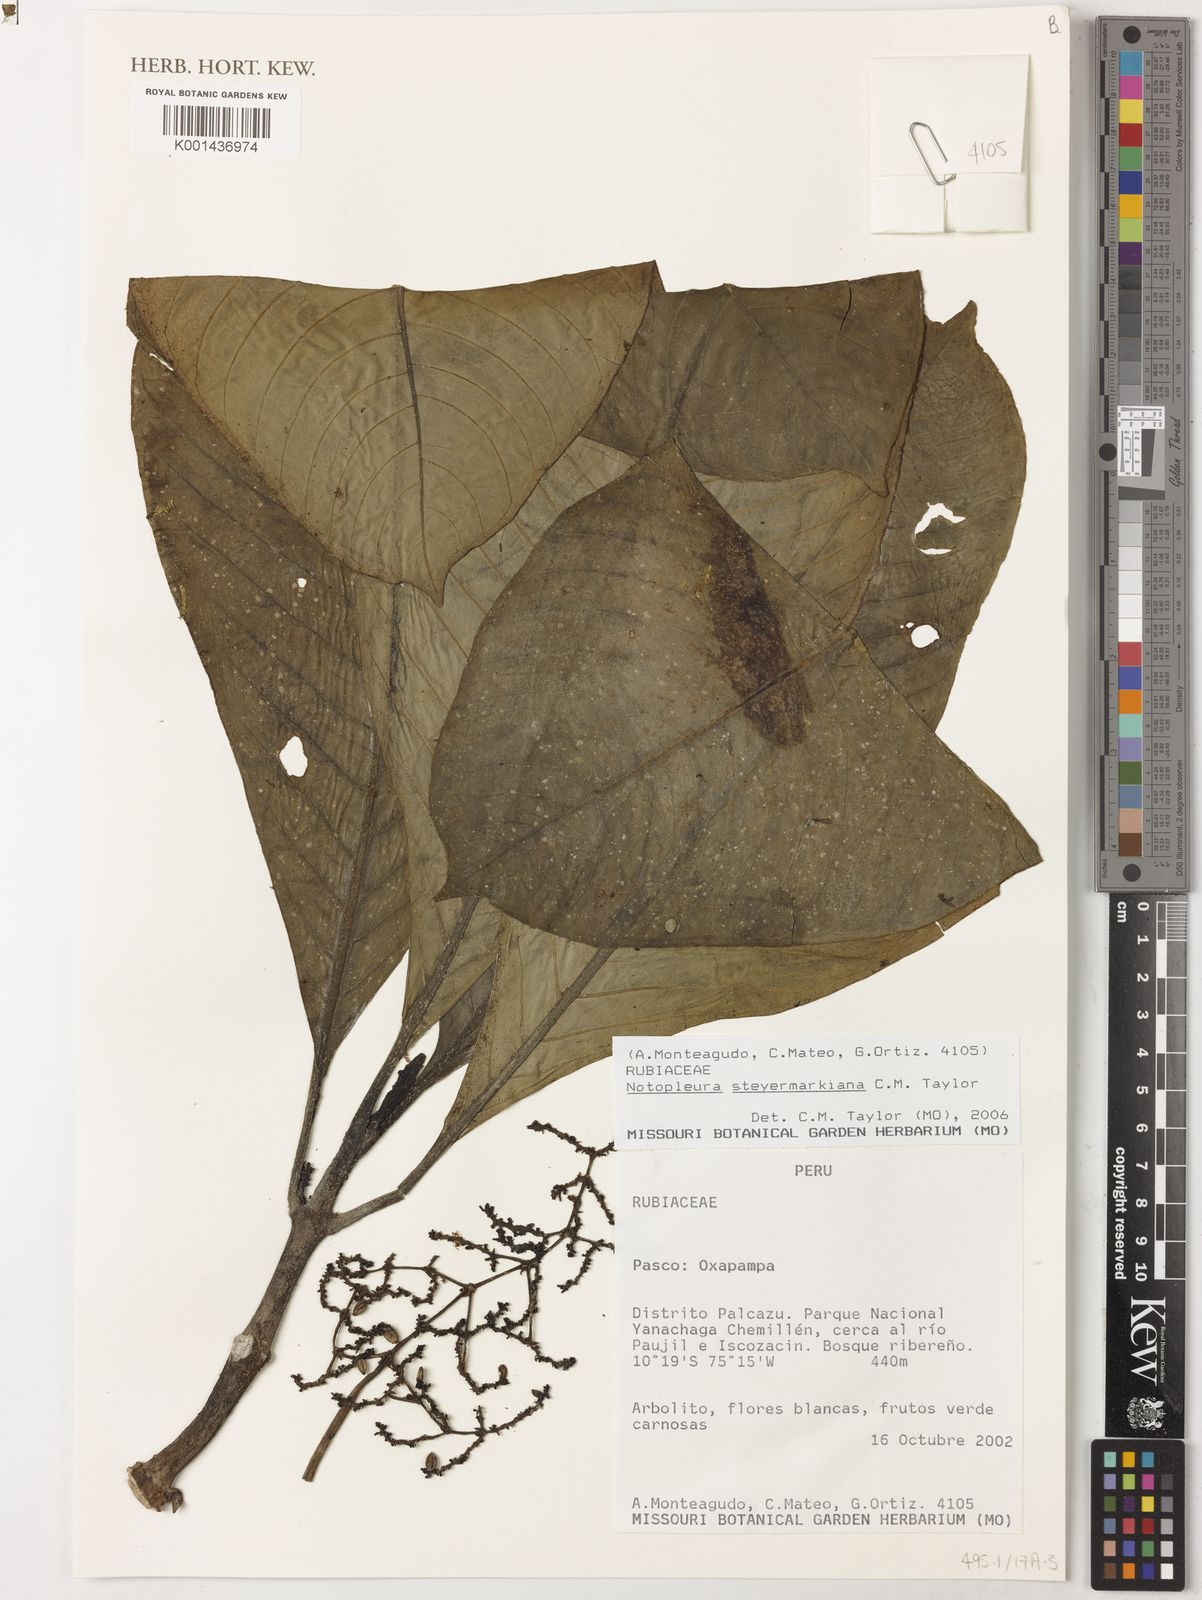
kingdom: Plantae
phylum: Tracheophyta
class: Magnoliopsida
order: Gentianales
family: Rubiaceae
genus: Notopleura
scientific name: Notopleura steyermarkiana
